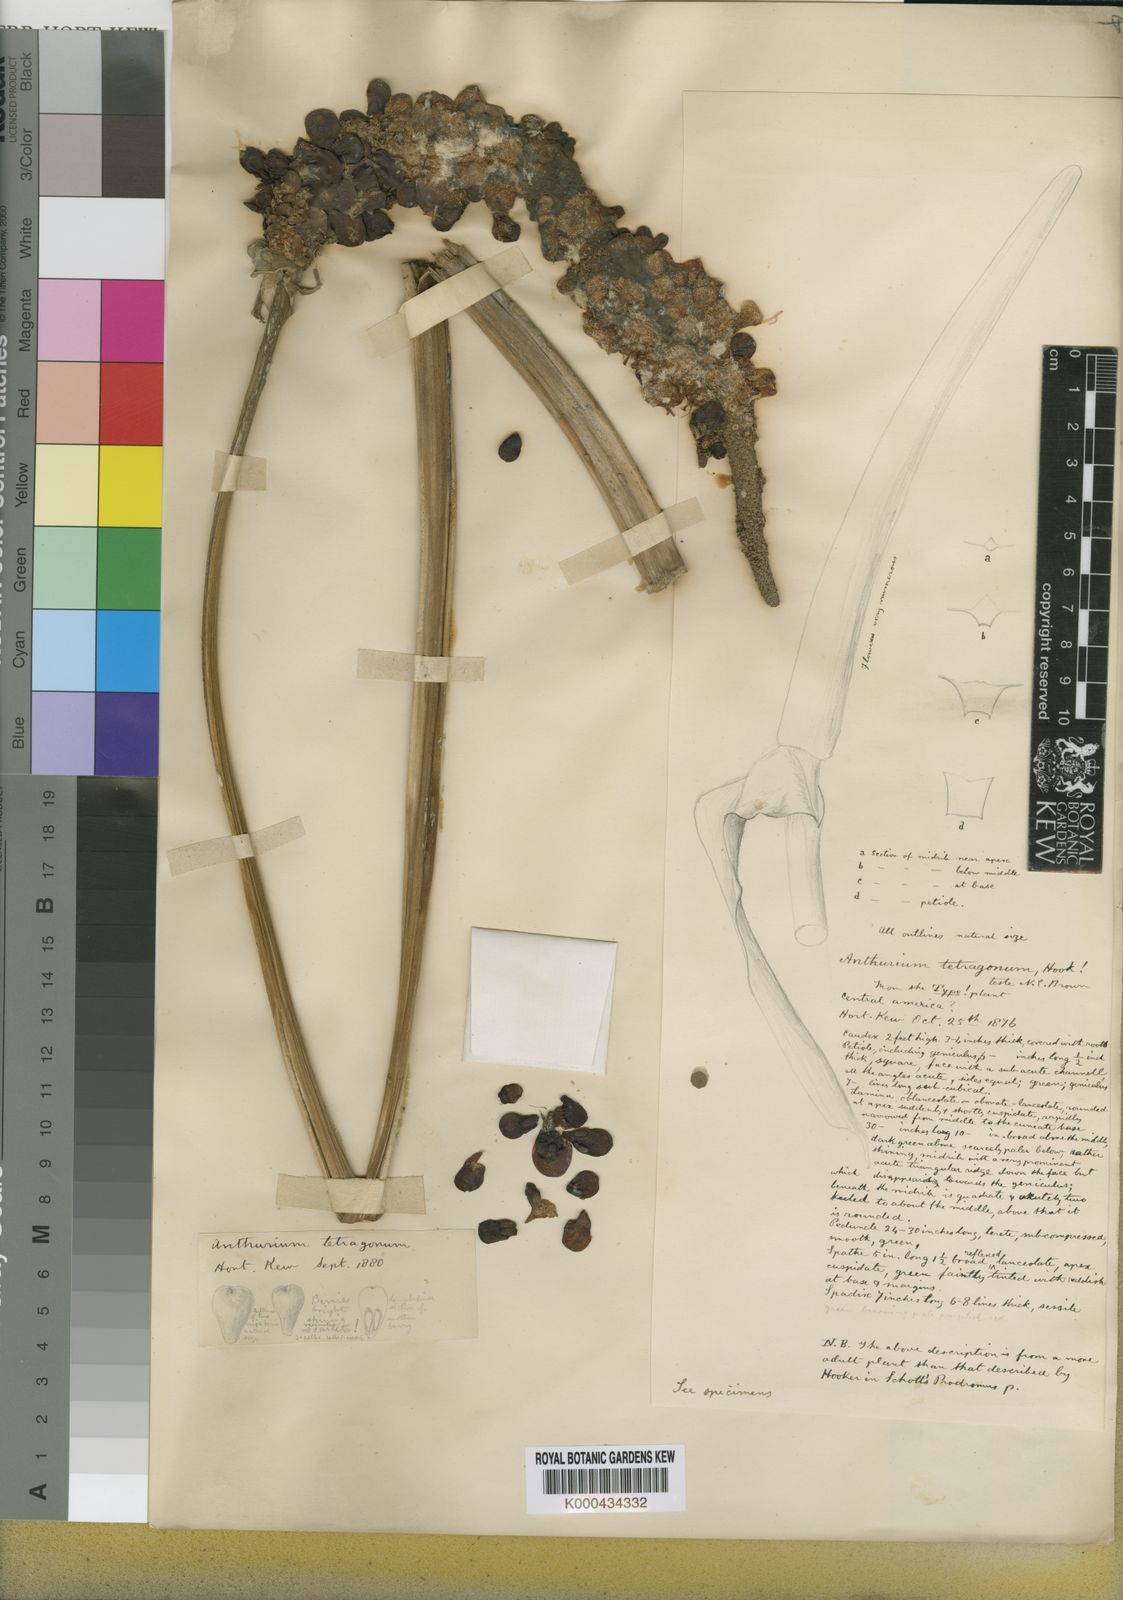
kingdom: Plantae
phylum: Tracheophyta
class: Liliopsida
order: Alismatales
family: Araceae
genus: Anthurium
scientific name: Anthurium schlechtendalii
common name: Laceleaf
